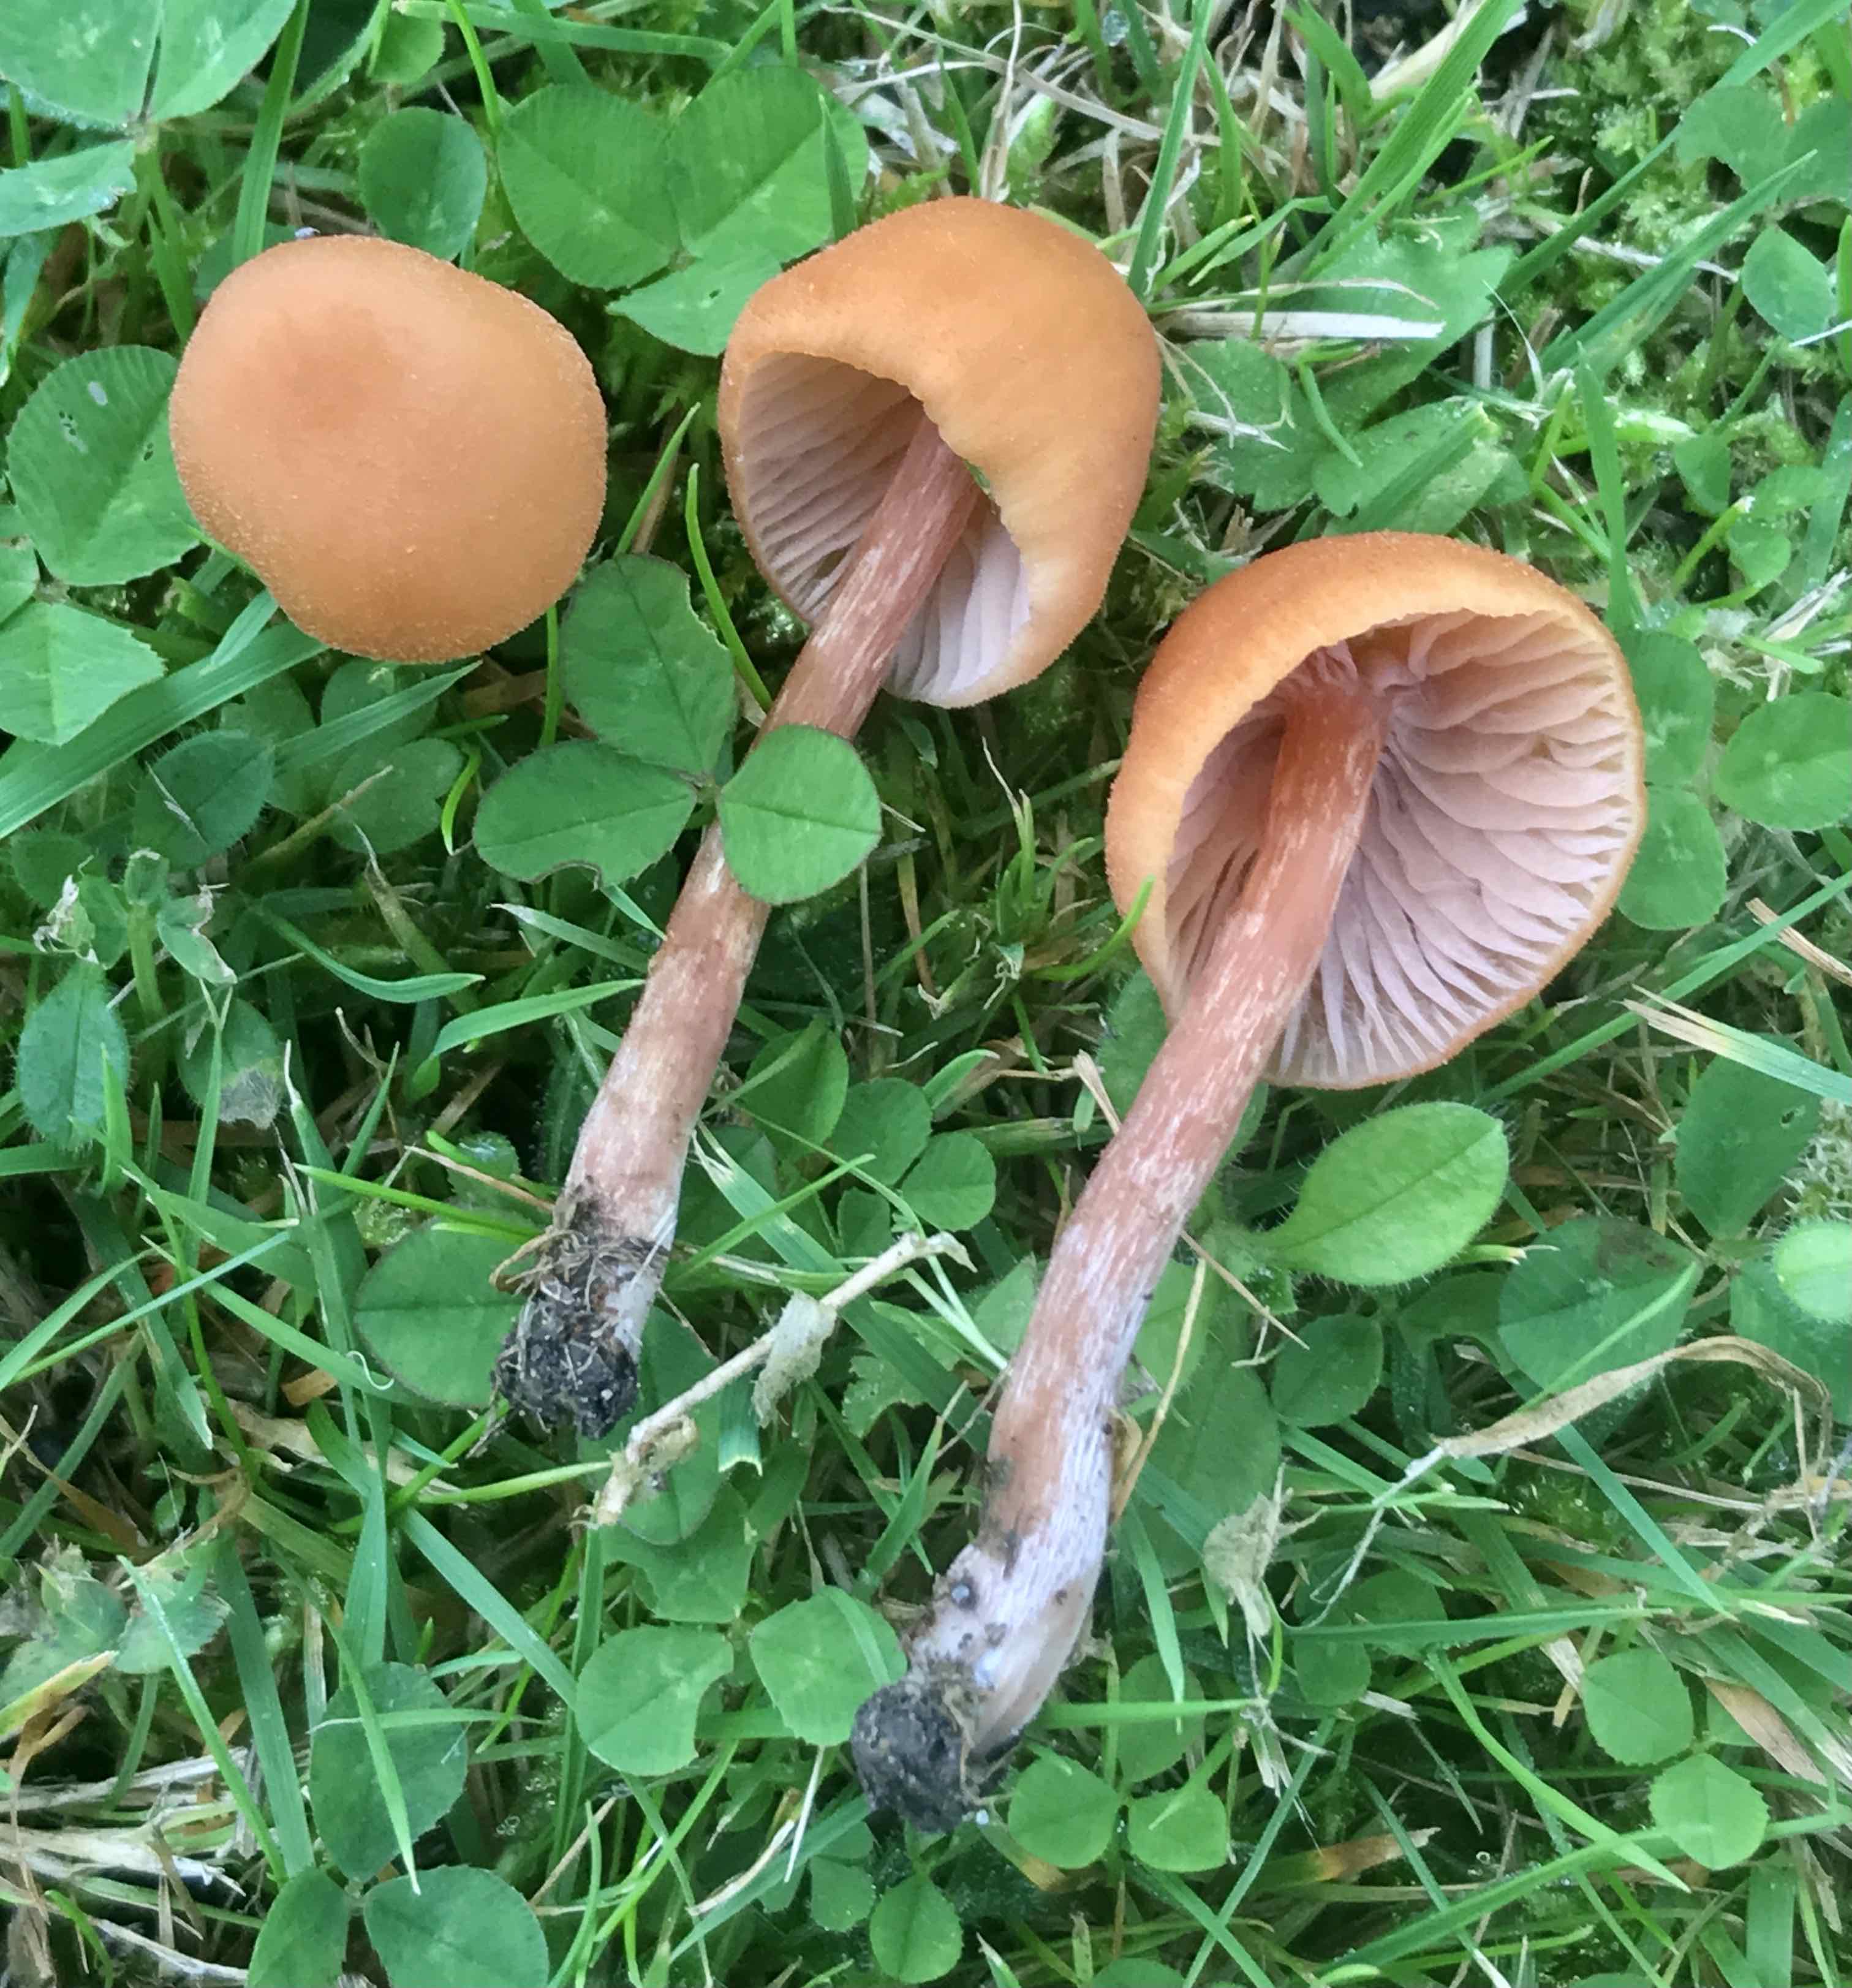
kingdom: Fungi
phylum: Basidiomycota
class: Agaricomycetes
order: Agaricales
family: Hydnangiaceae
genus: Laccaria
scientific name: Laccaria laccata
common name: rød ametysthat
